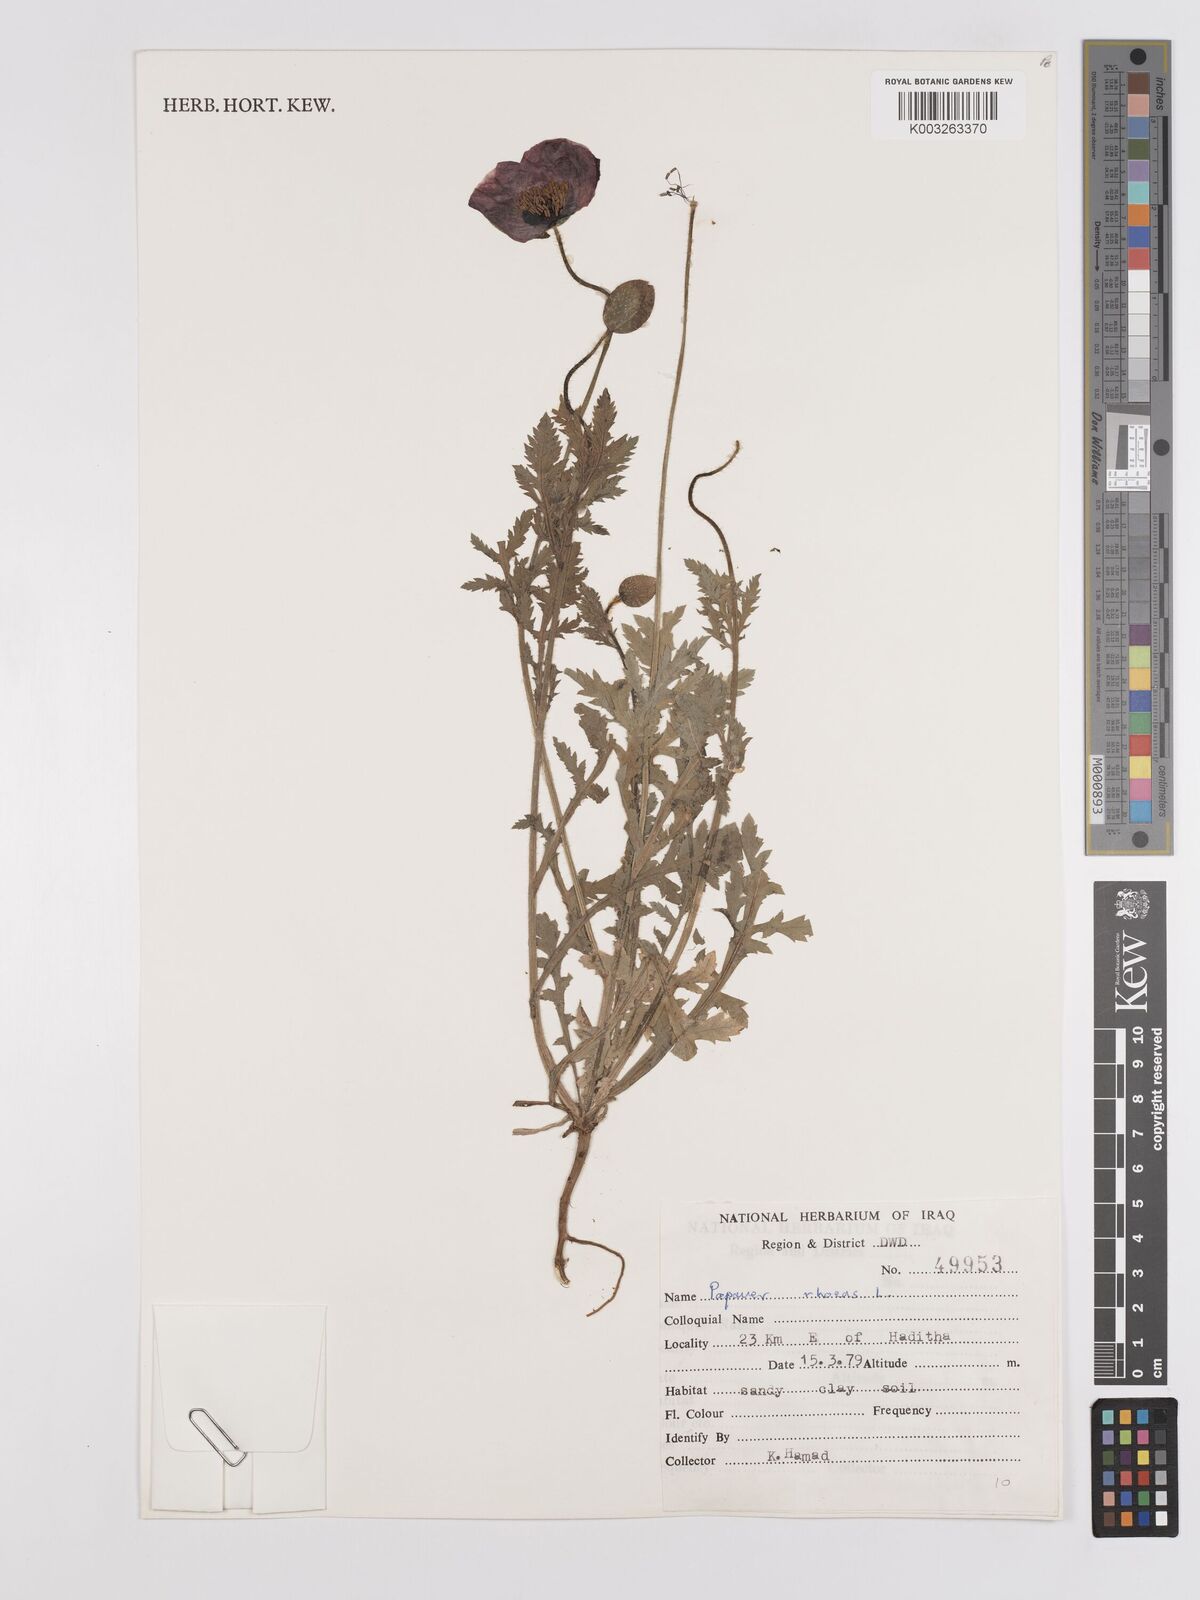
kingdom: Plantae
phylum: Tracheophyta
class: Magnoliopsida
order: Ranunculales
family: Papaveraceae
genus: Papaver
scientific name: Papaver rhoeas
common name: Corn poppy
